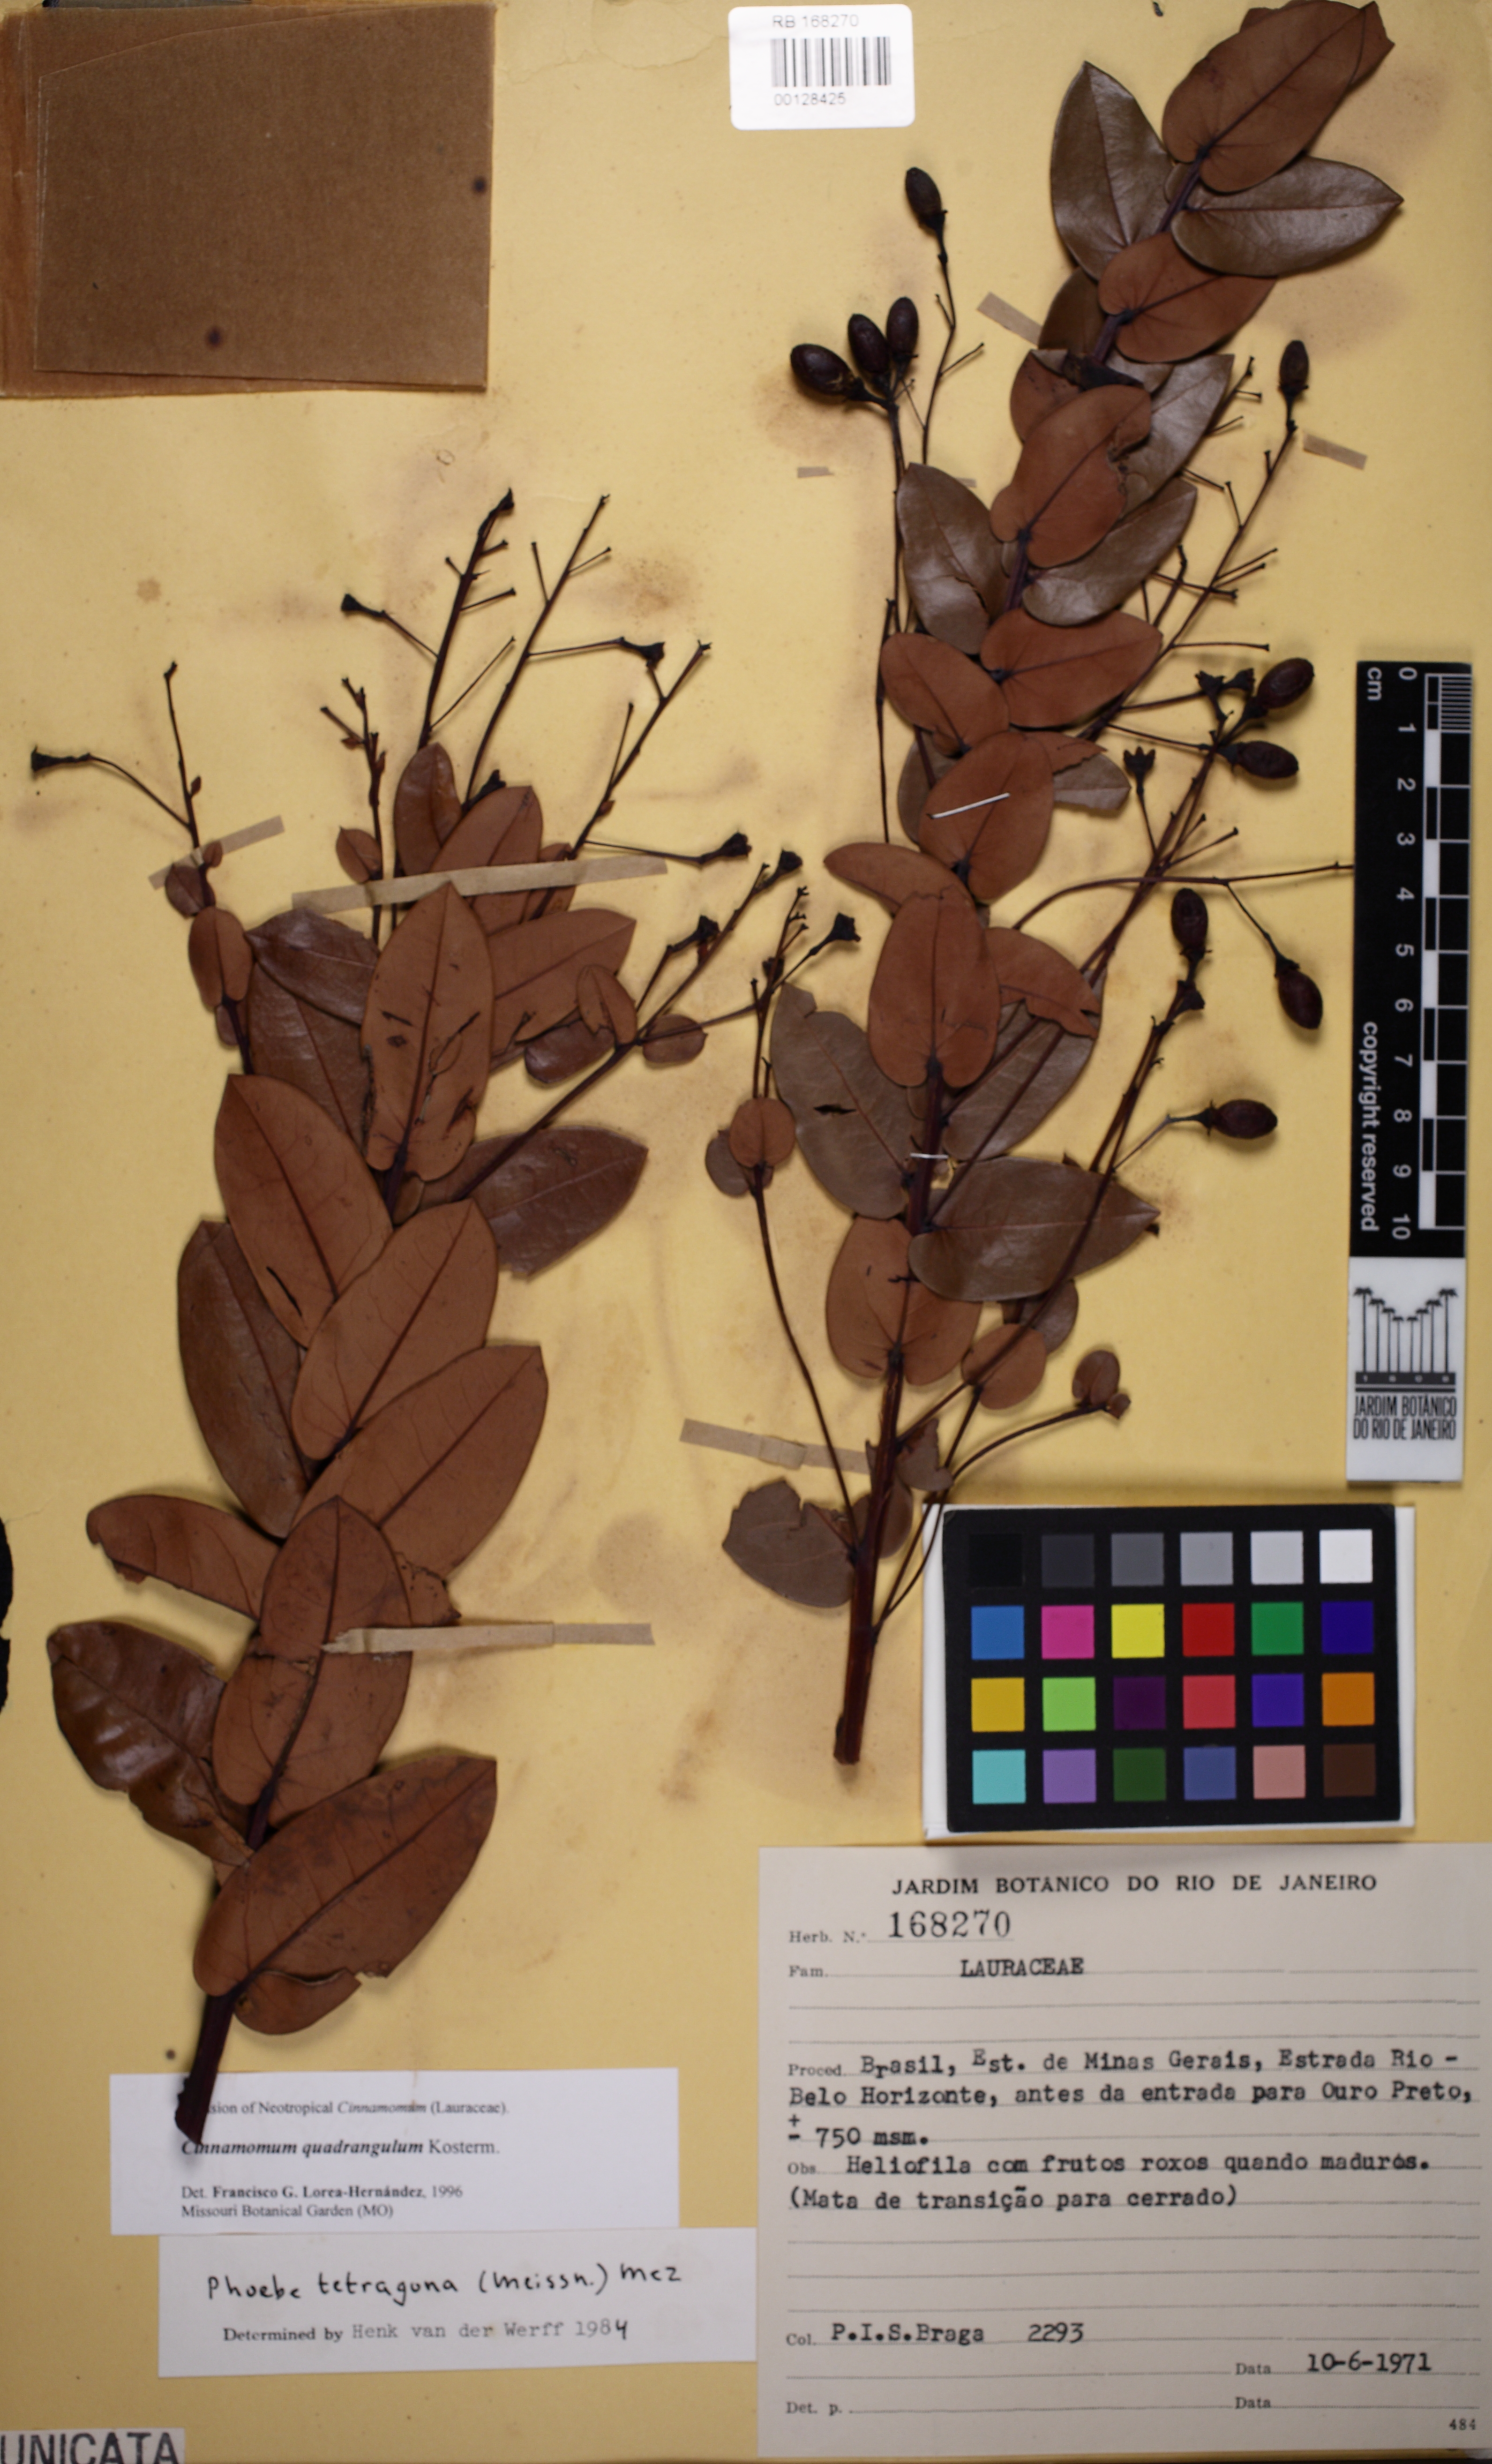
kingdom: Plantae
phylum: Tracheophyta
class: Magnoliopsida
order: Laurales
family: Lauraceae
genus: Aiouea
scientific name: Aiouea tetragona
